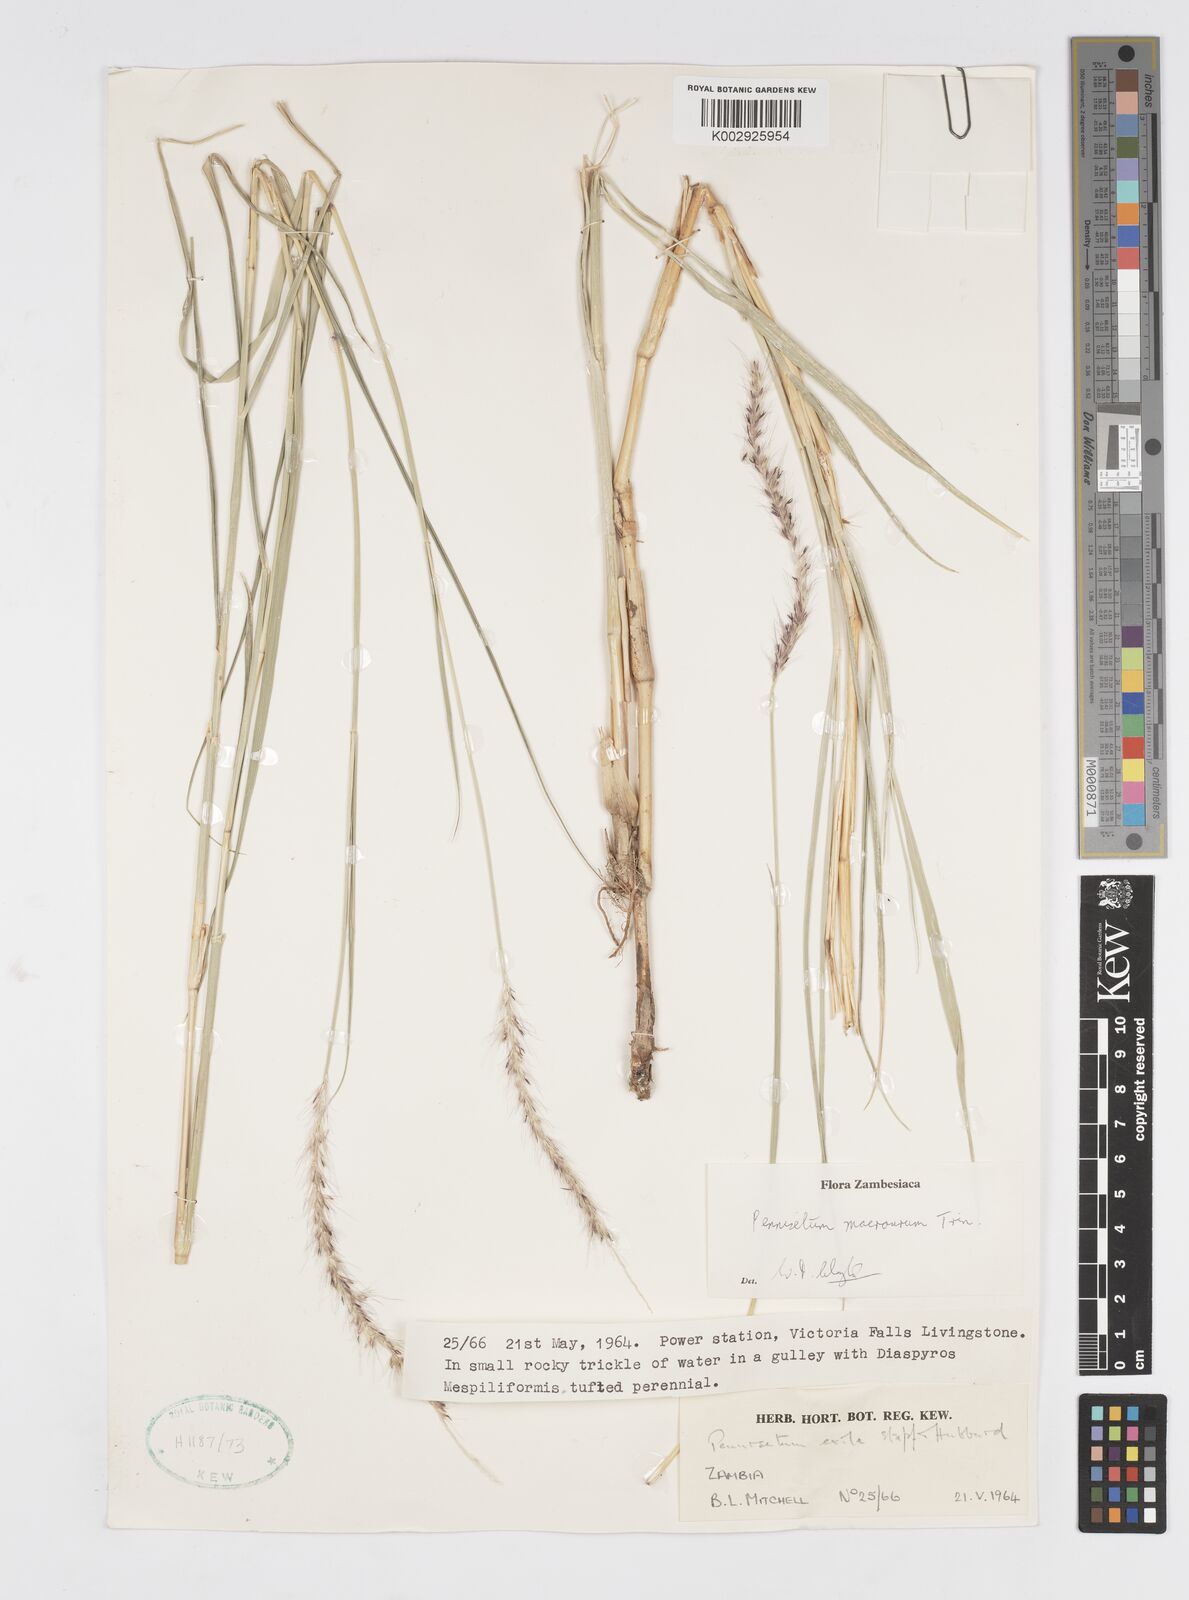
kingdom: Plantae
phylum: Tracheophyta
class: Liliopsida
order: Poales
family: Poaceae
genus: Cenchrus
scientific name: Cenchrus caudatus
